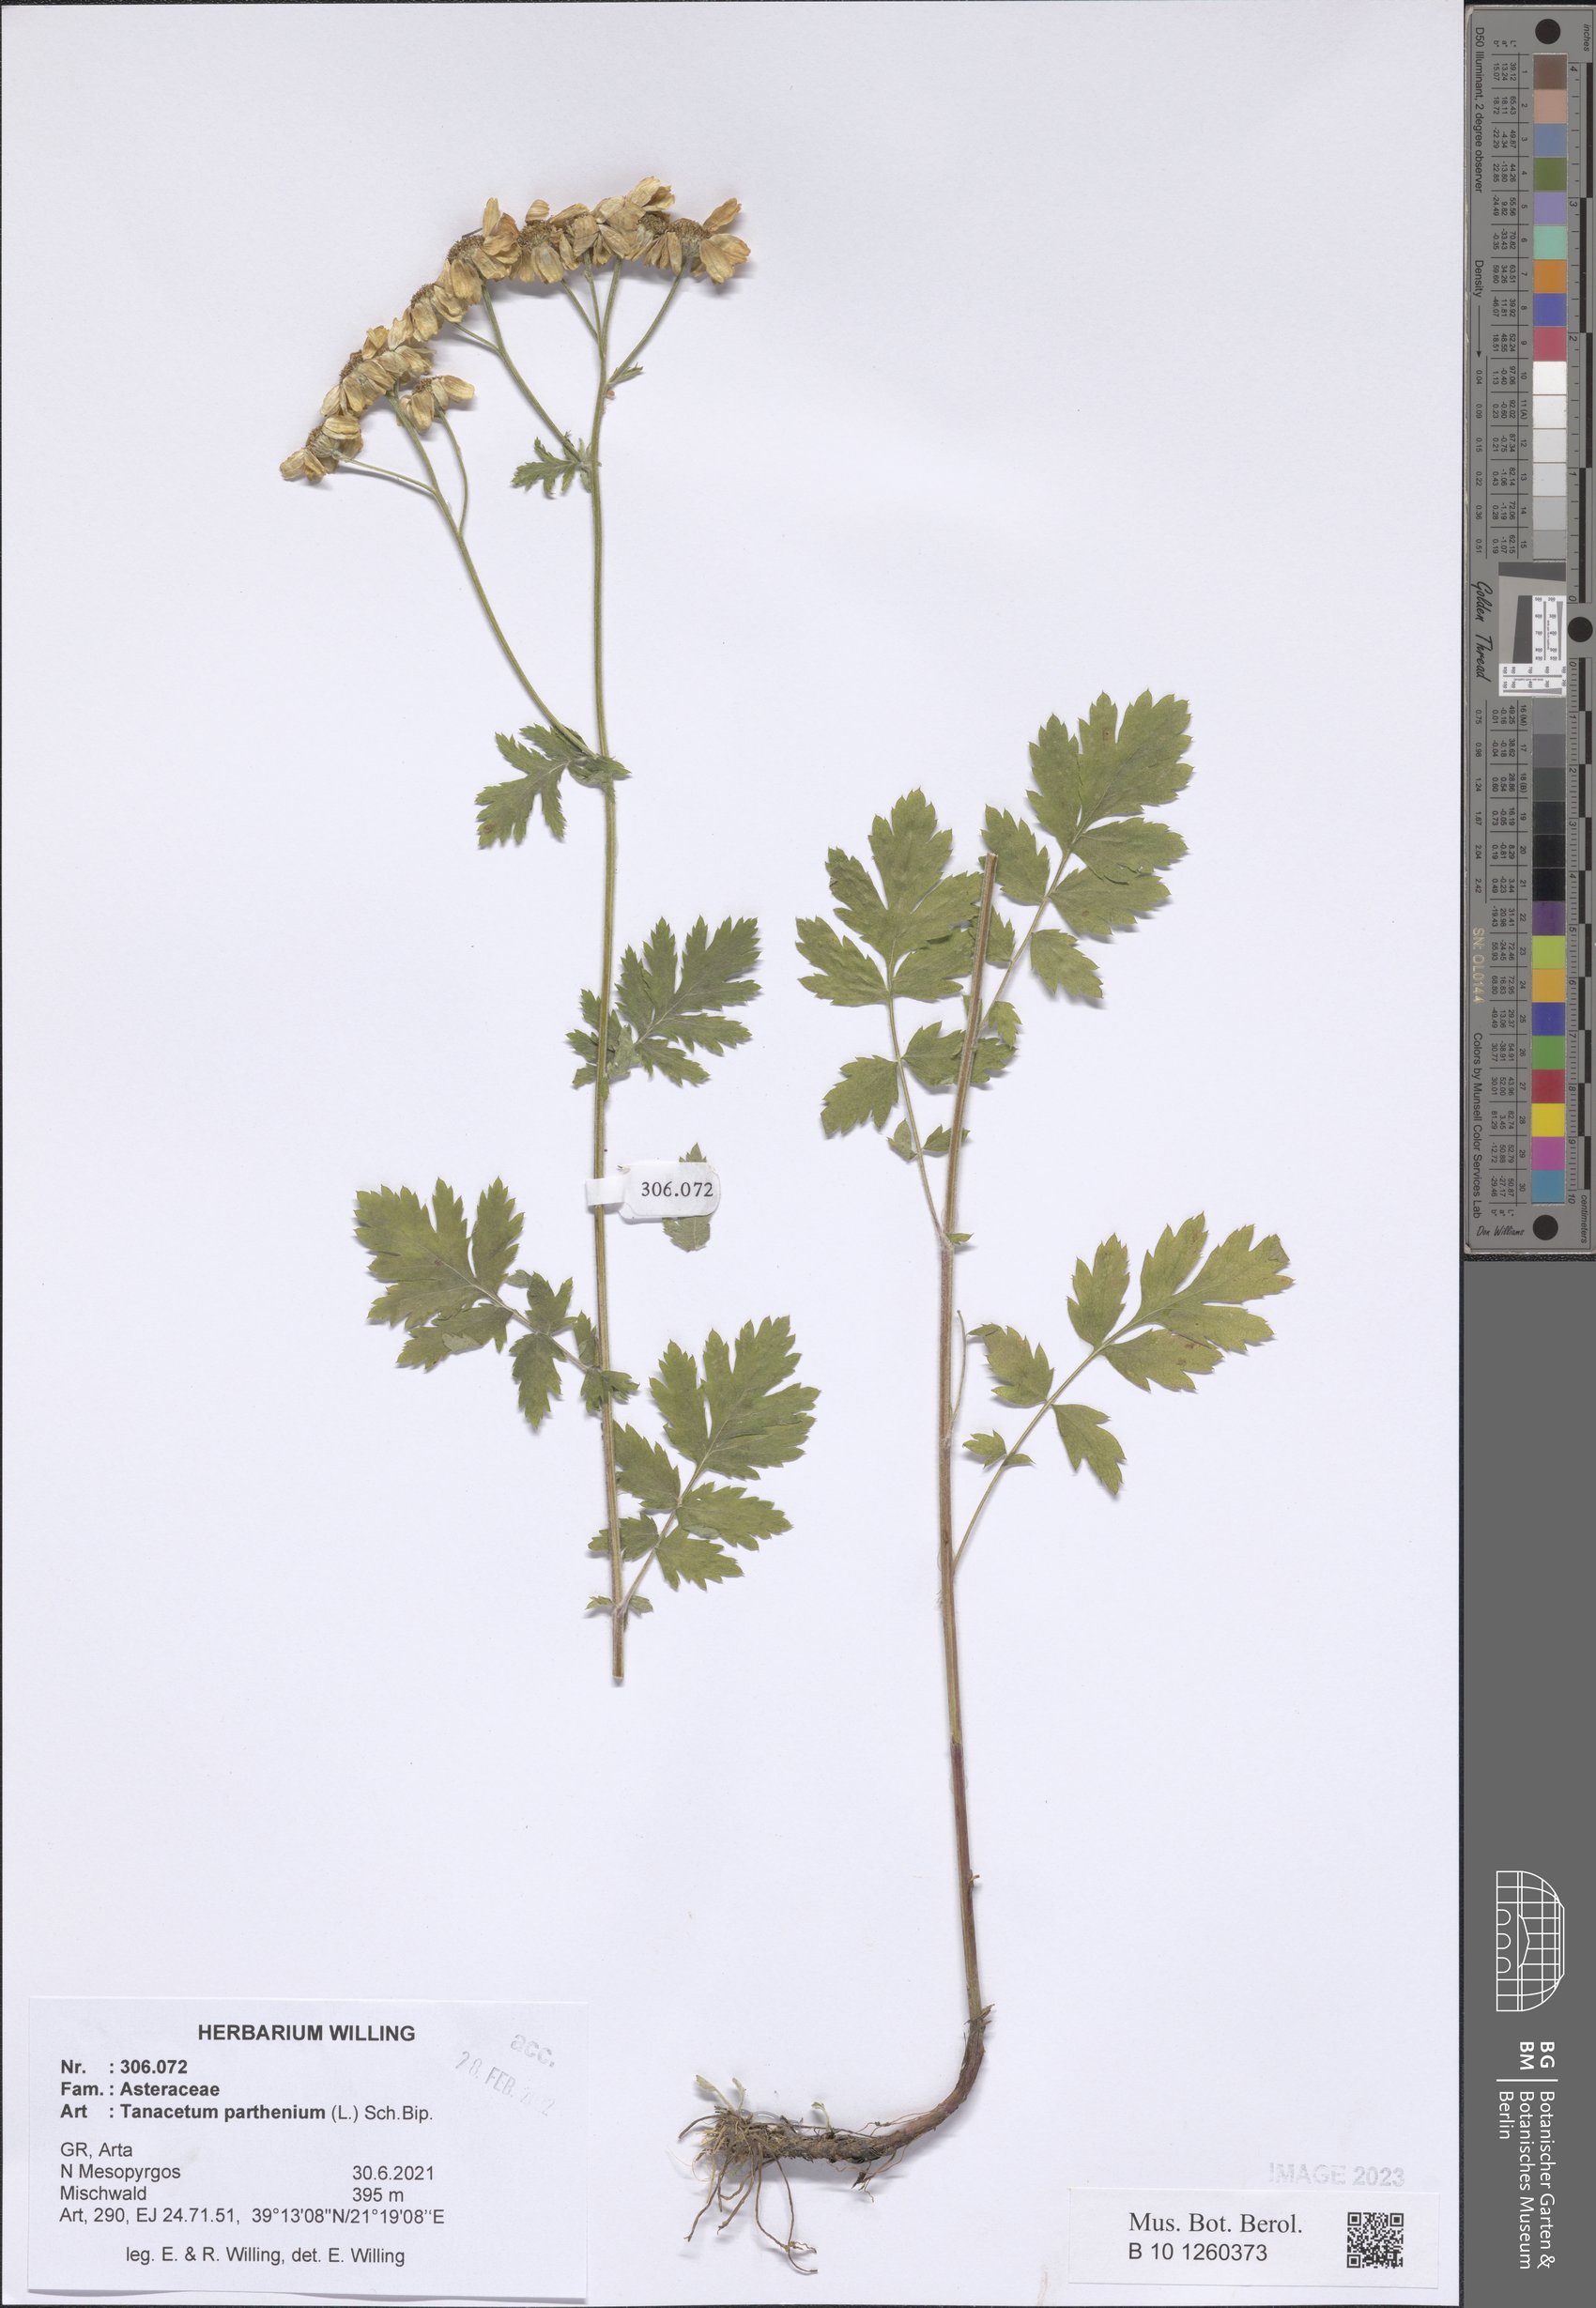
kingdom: Plantae
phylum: Tracheophyta
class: Magnoliopsida
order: Asterales
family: Asteraceae
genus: Tanacetum
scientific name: Tanacetum parthenium
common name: Feverfew
